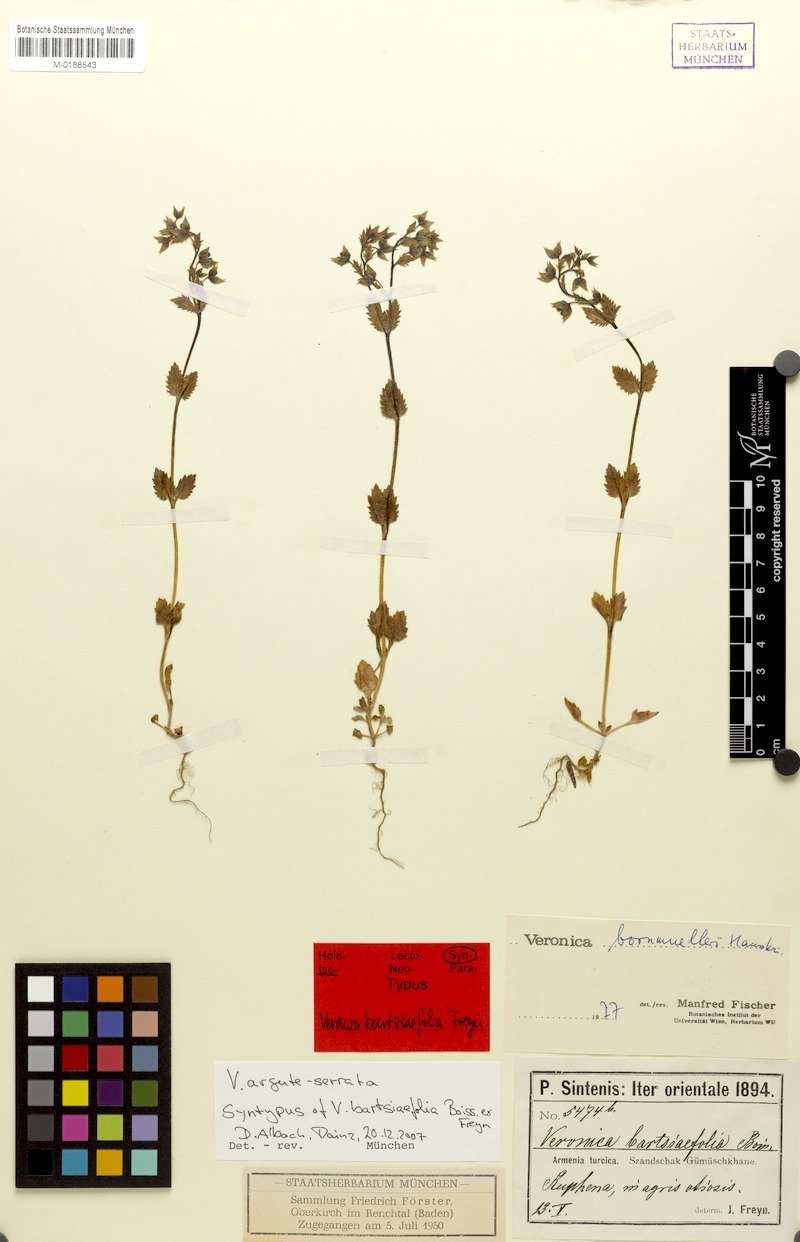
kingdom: Plantae
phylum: Tracheophyta
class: Magnoliopsida
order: Lamiales
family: Plantaginaceae
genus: Veronica
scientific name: Veronica argute-serrata
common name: Sawtooth speedwell
